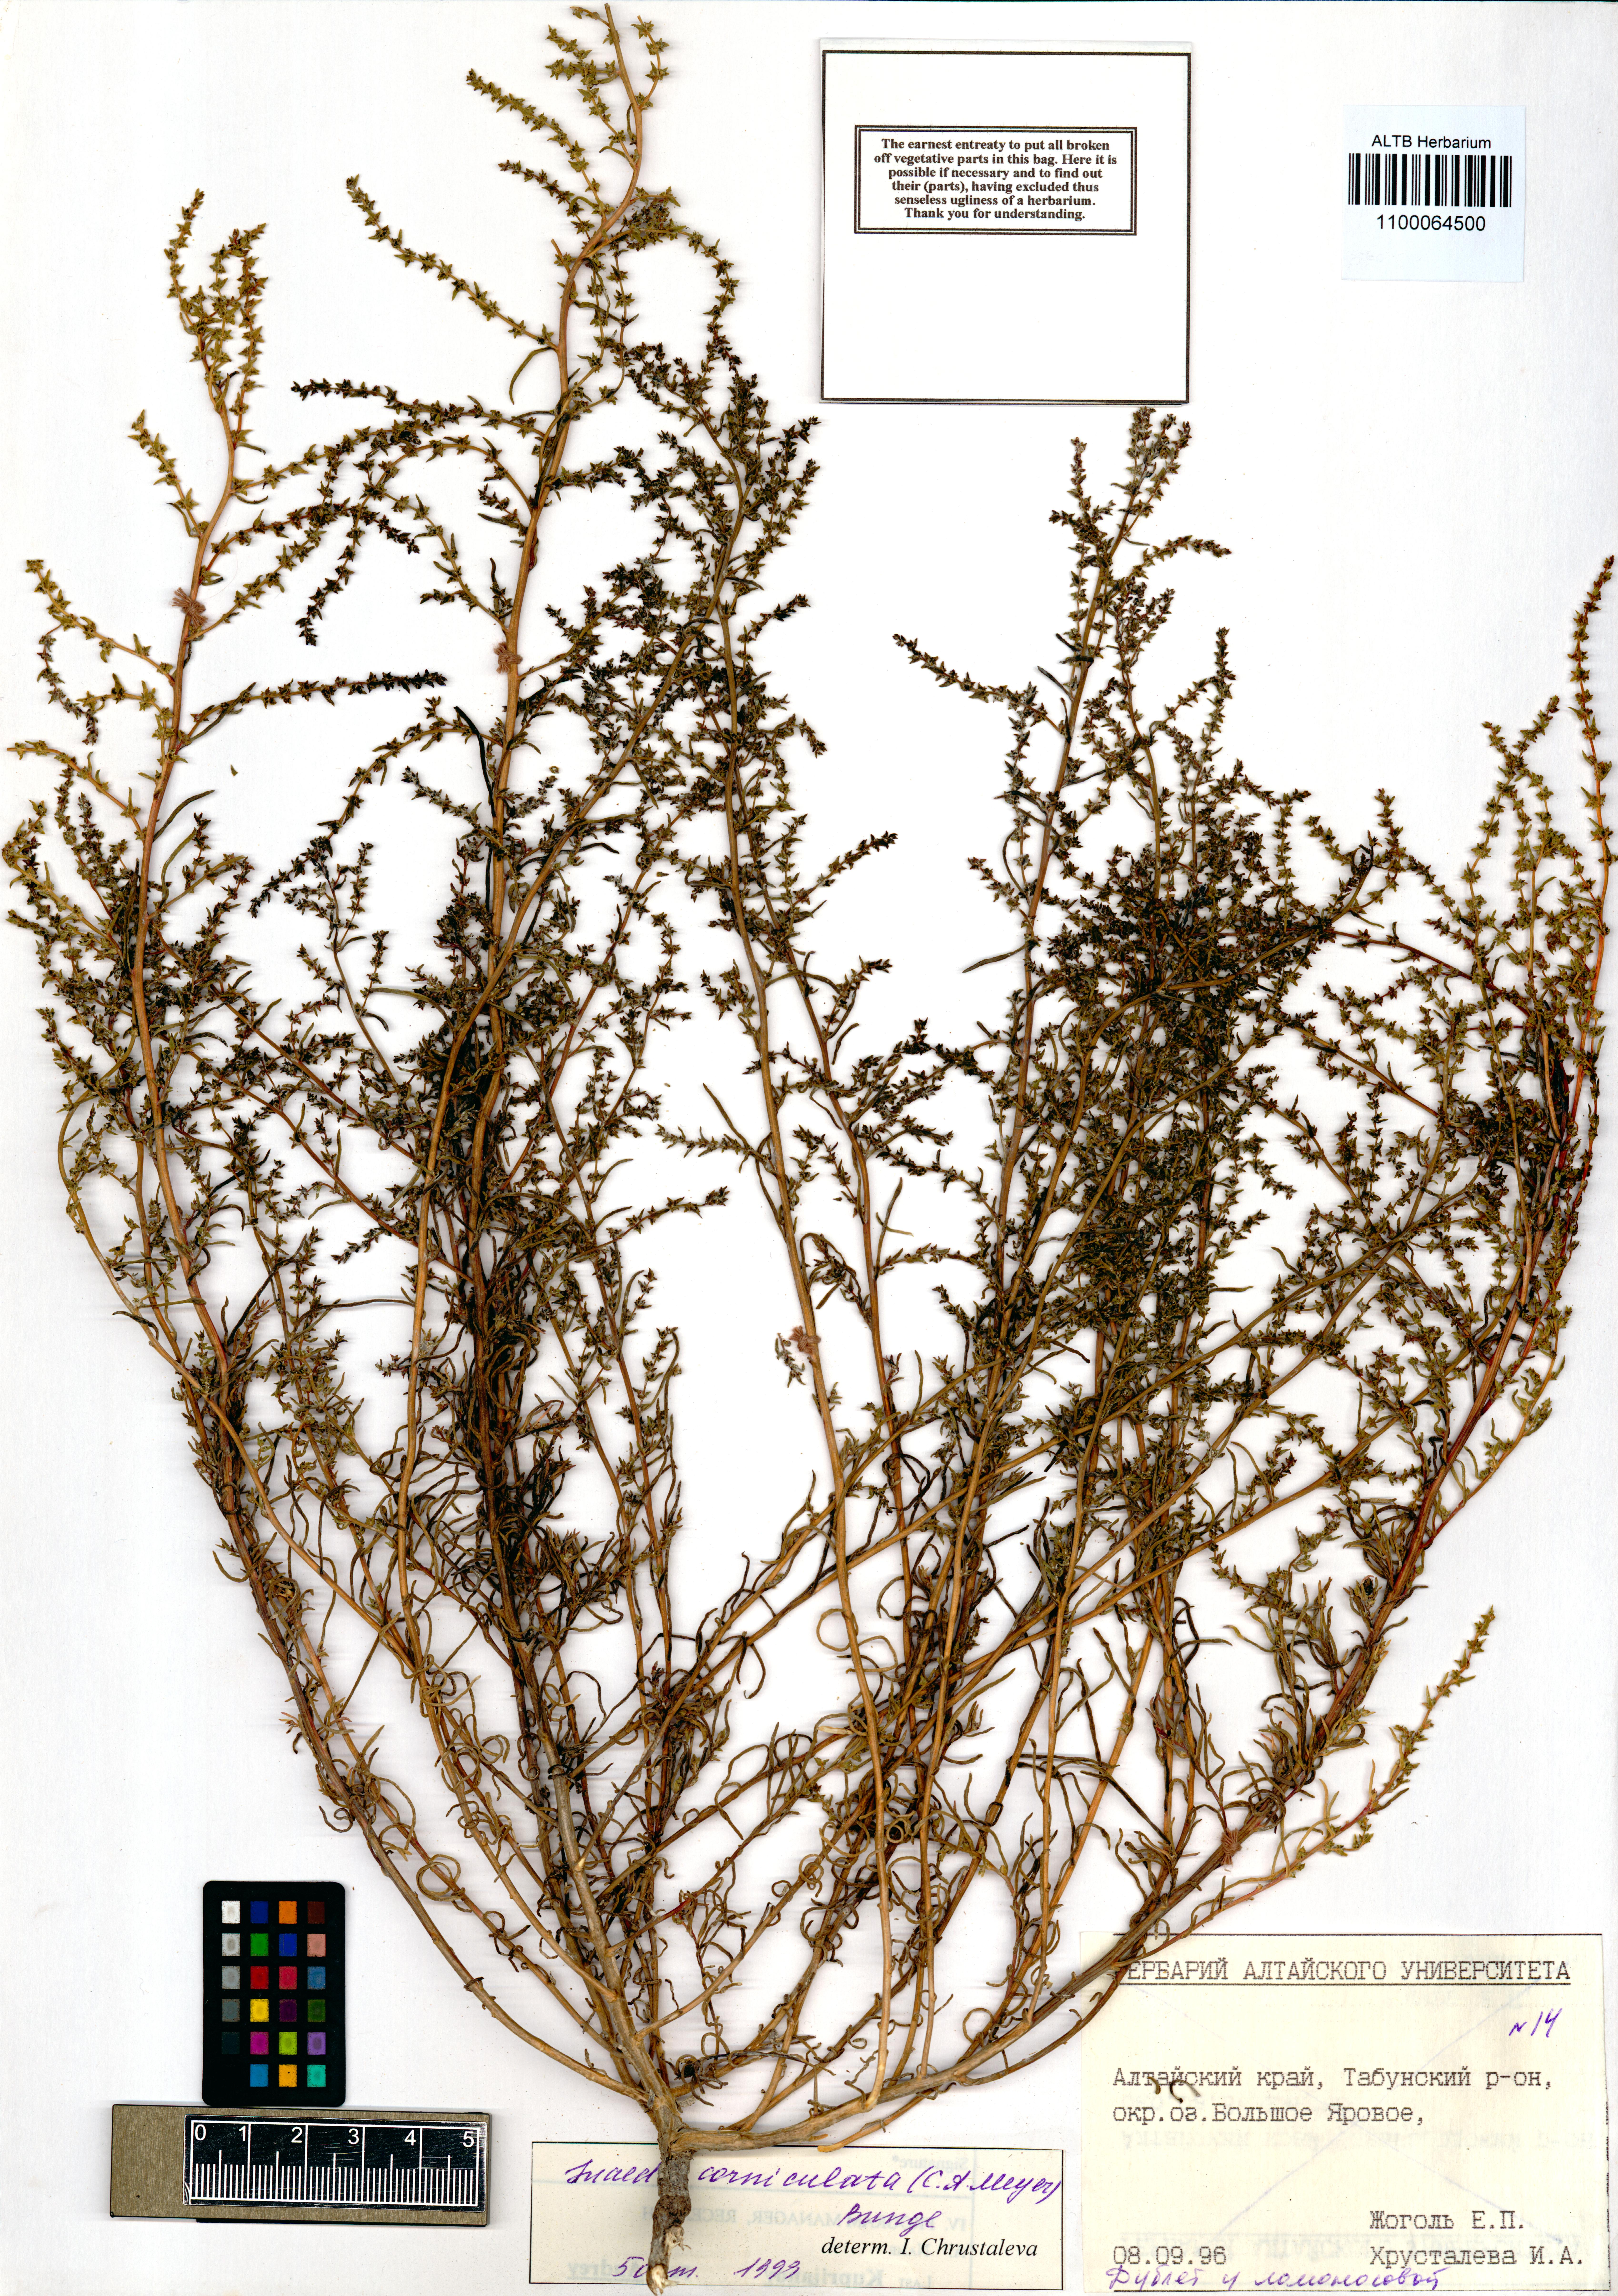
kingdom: Plantae
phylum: Tracheophyta
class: Magnoliopsida
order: Caryophyllales
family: Amaranthaceae
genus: Suaeda
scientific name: Suaeda corniculata
